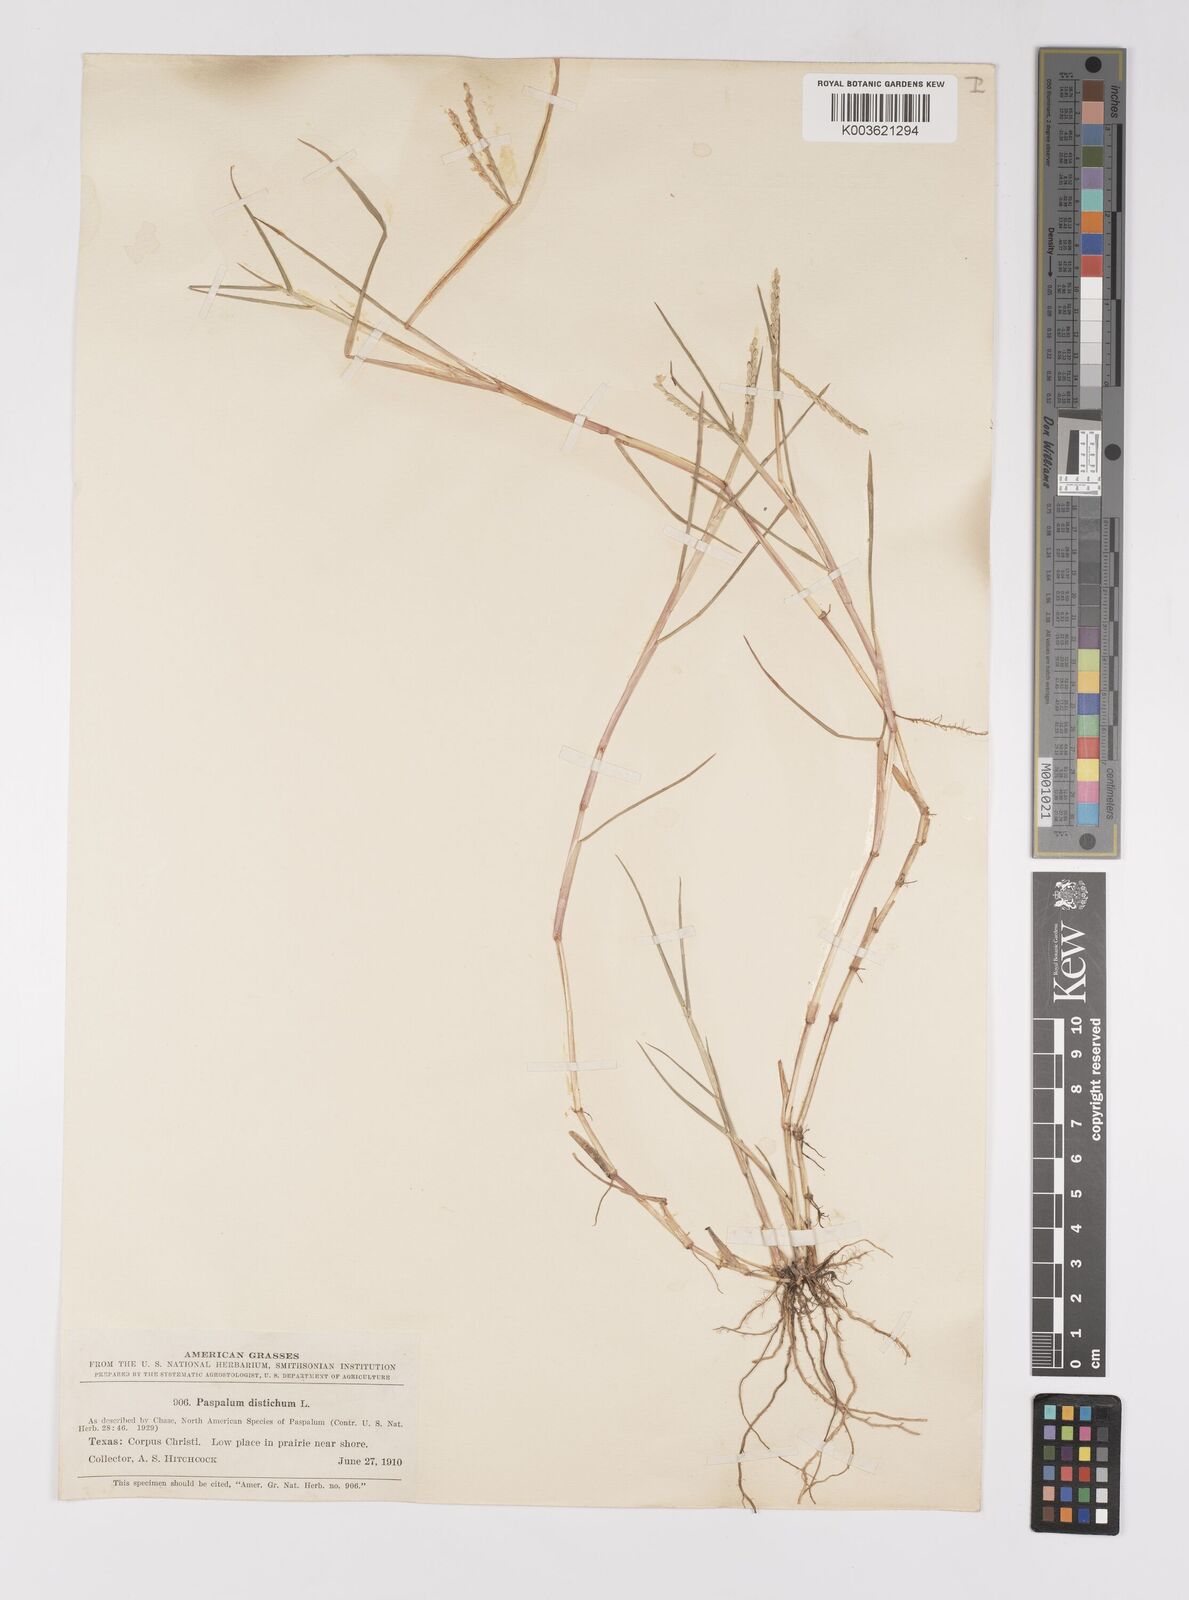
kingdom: Plantae
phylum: Tracheophyta
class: Liliopsida
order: Poales
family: Poaceae
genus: Paspalum
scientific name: Paspalum distichum
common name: Knotgrass
